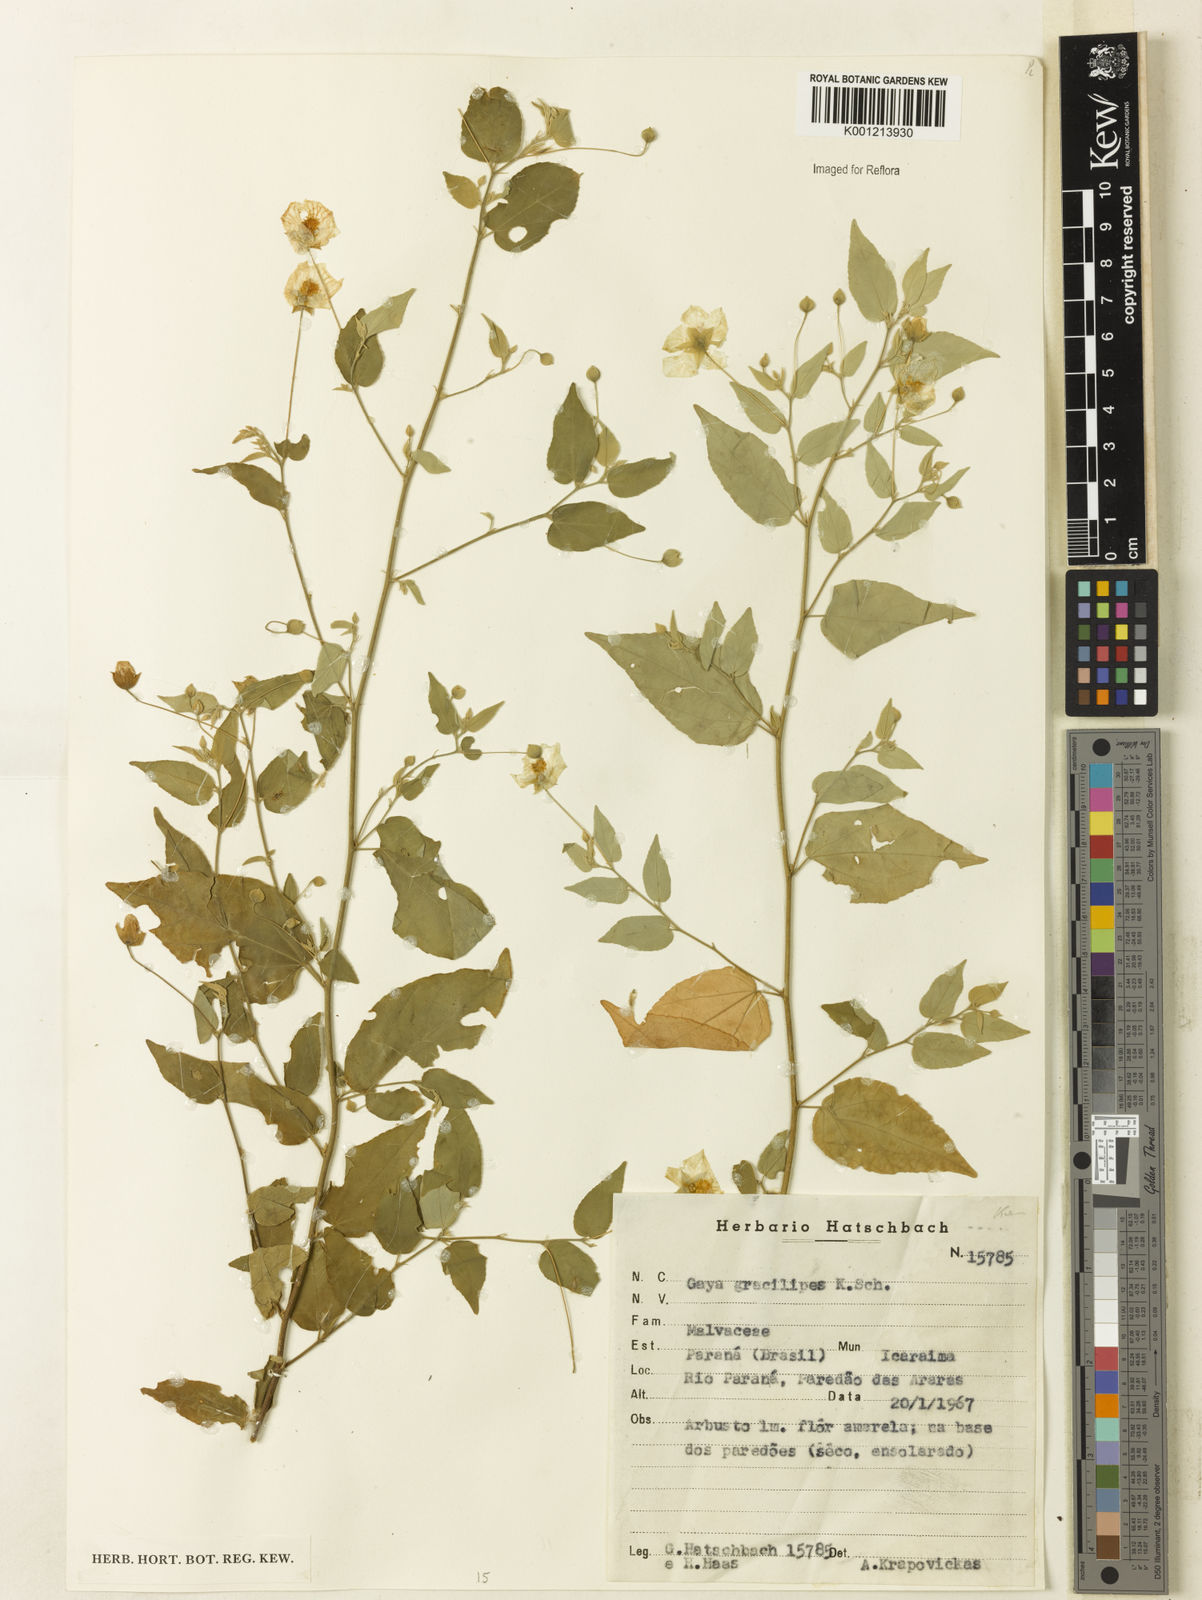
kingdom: Plantae
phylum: Tracheophyta
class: Magnoliopsida
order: Malvales
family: Malvaceae
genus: Gaya
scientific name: Gaya gracilipes
